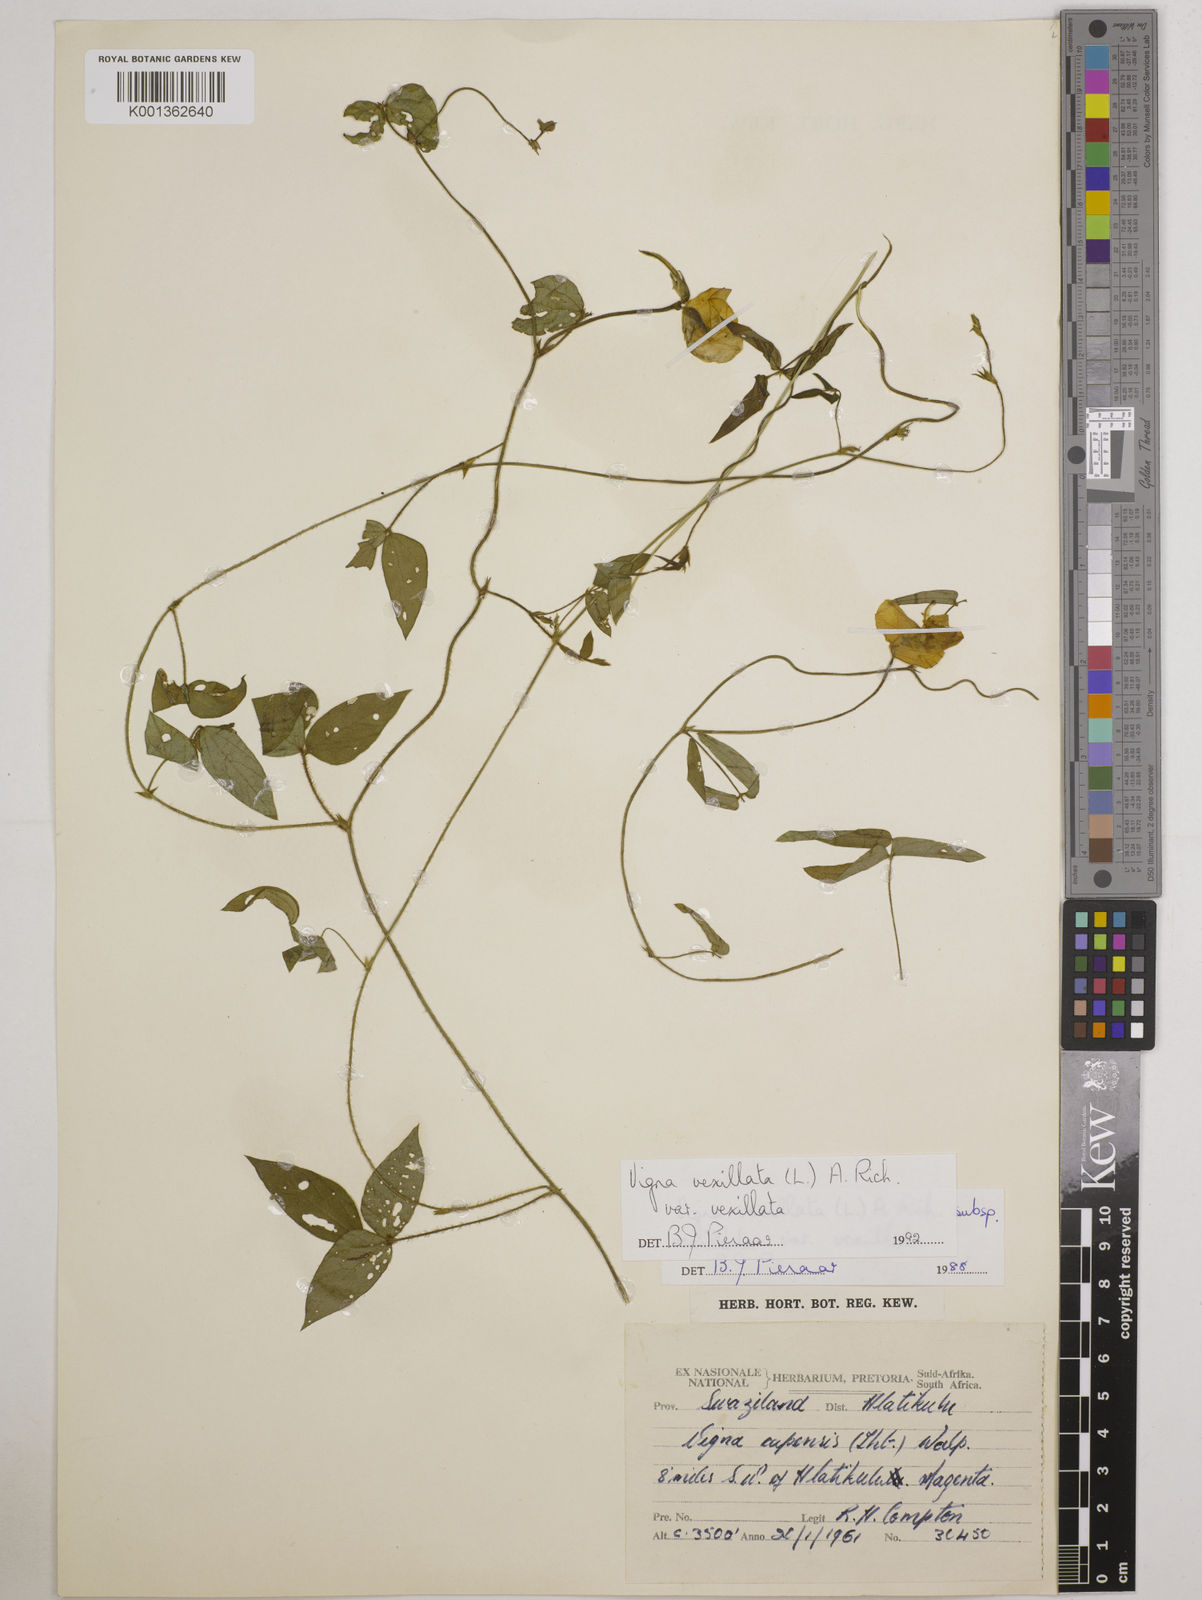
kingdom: Plantae
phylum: Tracheophyta
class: Magnoliopsida
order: Fabales
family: Fabaceae
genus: Vigna
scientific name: Vigna vexillata
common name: Zombi pea
